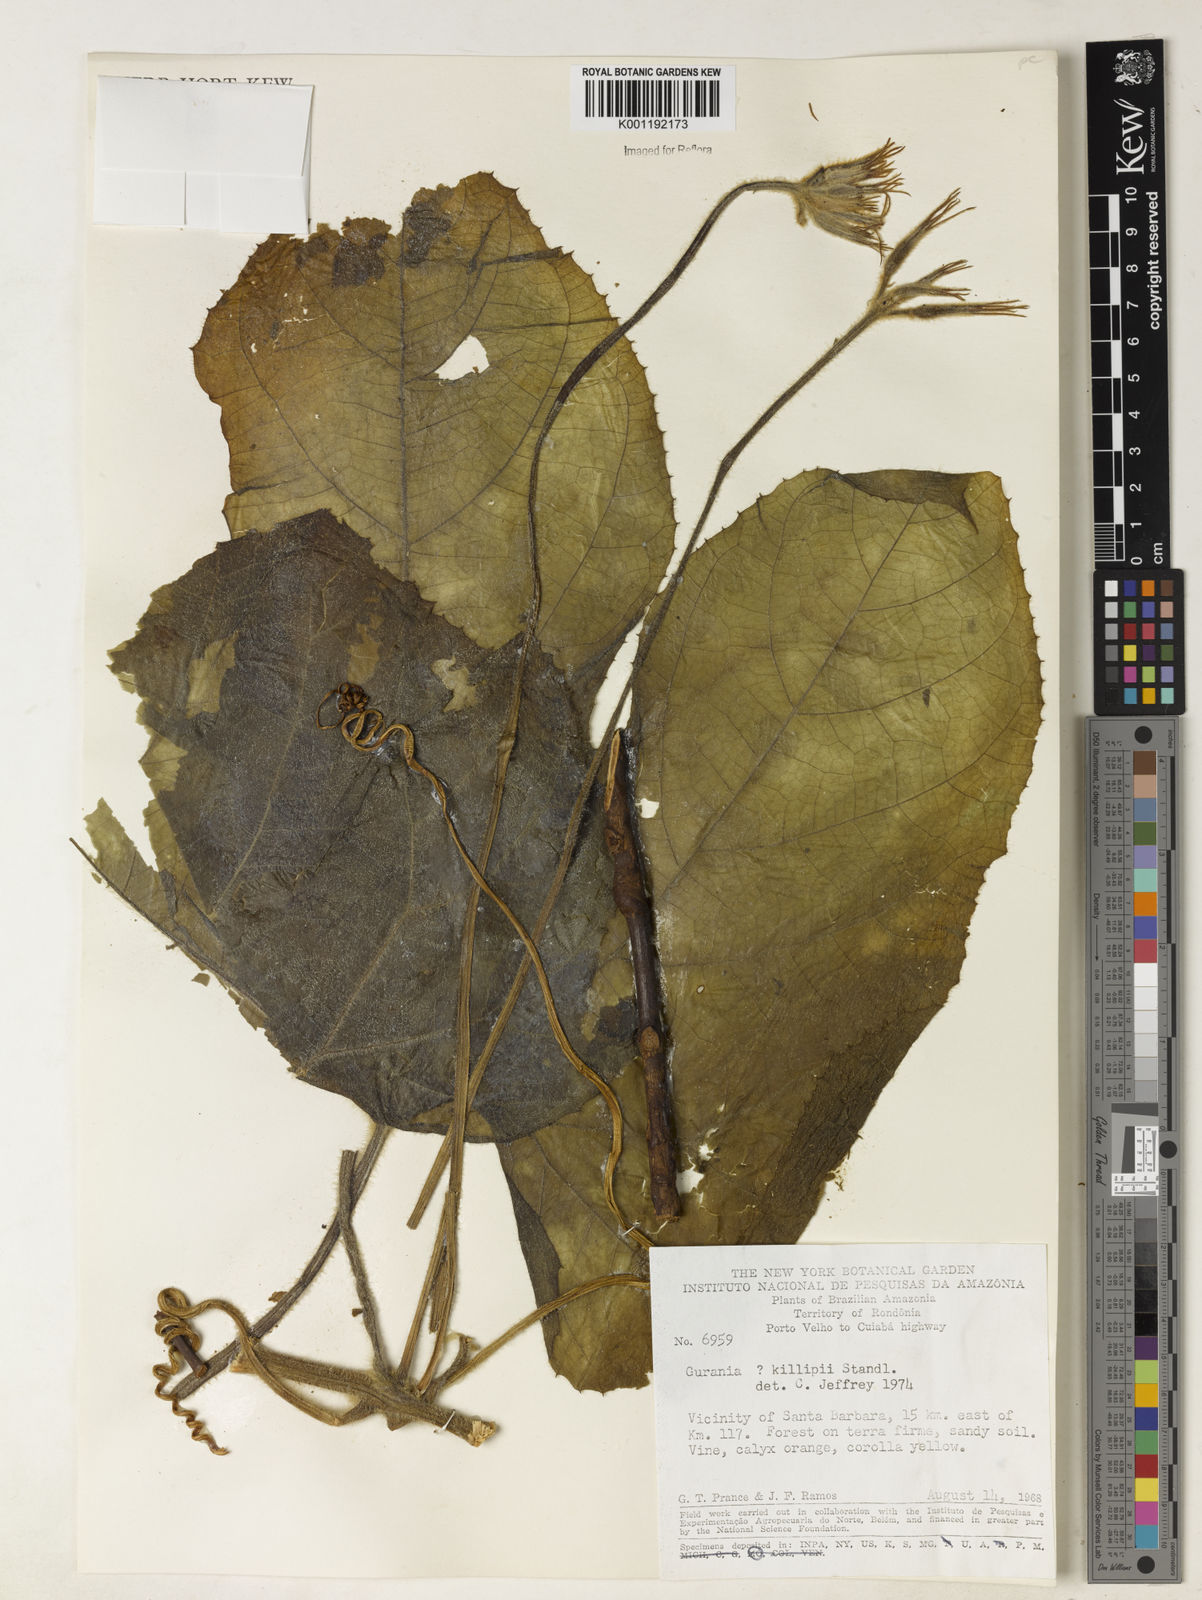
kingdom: Plantae
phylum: Tracheophyta
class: Magnoliopsida
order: Cucurbitales
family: Cucurbitaceae
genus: Gurania
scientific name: Gurania
